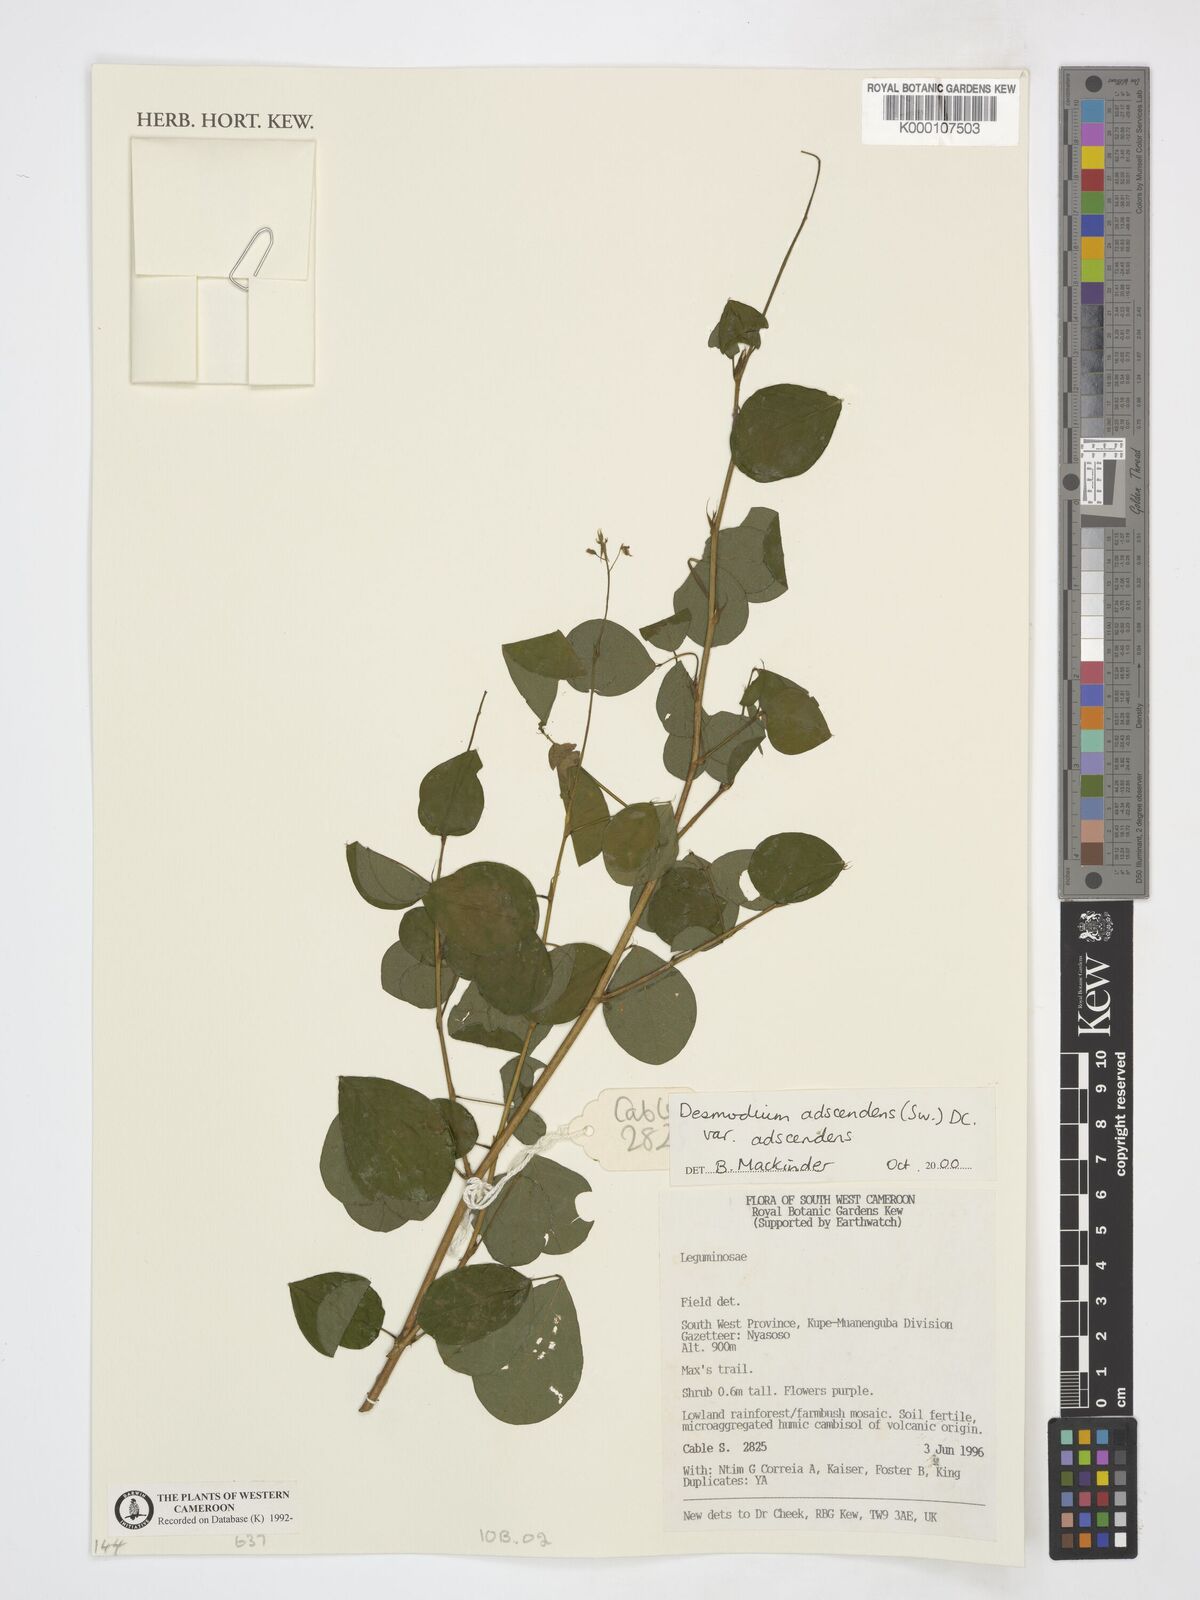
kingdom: Plantae
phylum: Tracheophyta
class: Magnoliopsida
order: Fabales
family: Fabaceae
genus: Grona
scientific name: Grona adscendens
